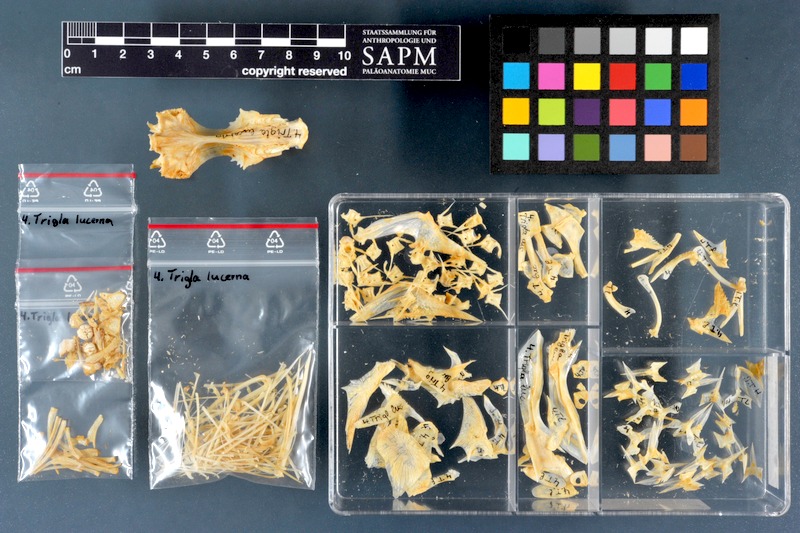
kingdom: Animalia
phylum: Chordata
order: Scorpaeniformes
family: Triglidae
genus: Chelidonichthys
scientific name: Chelidonichthys lucerna
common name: Tub gurnard
